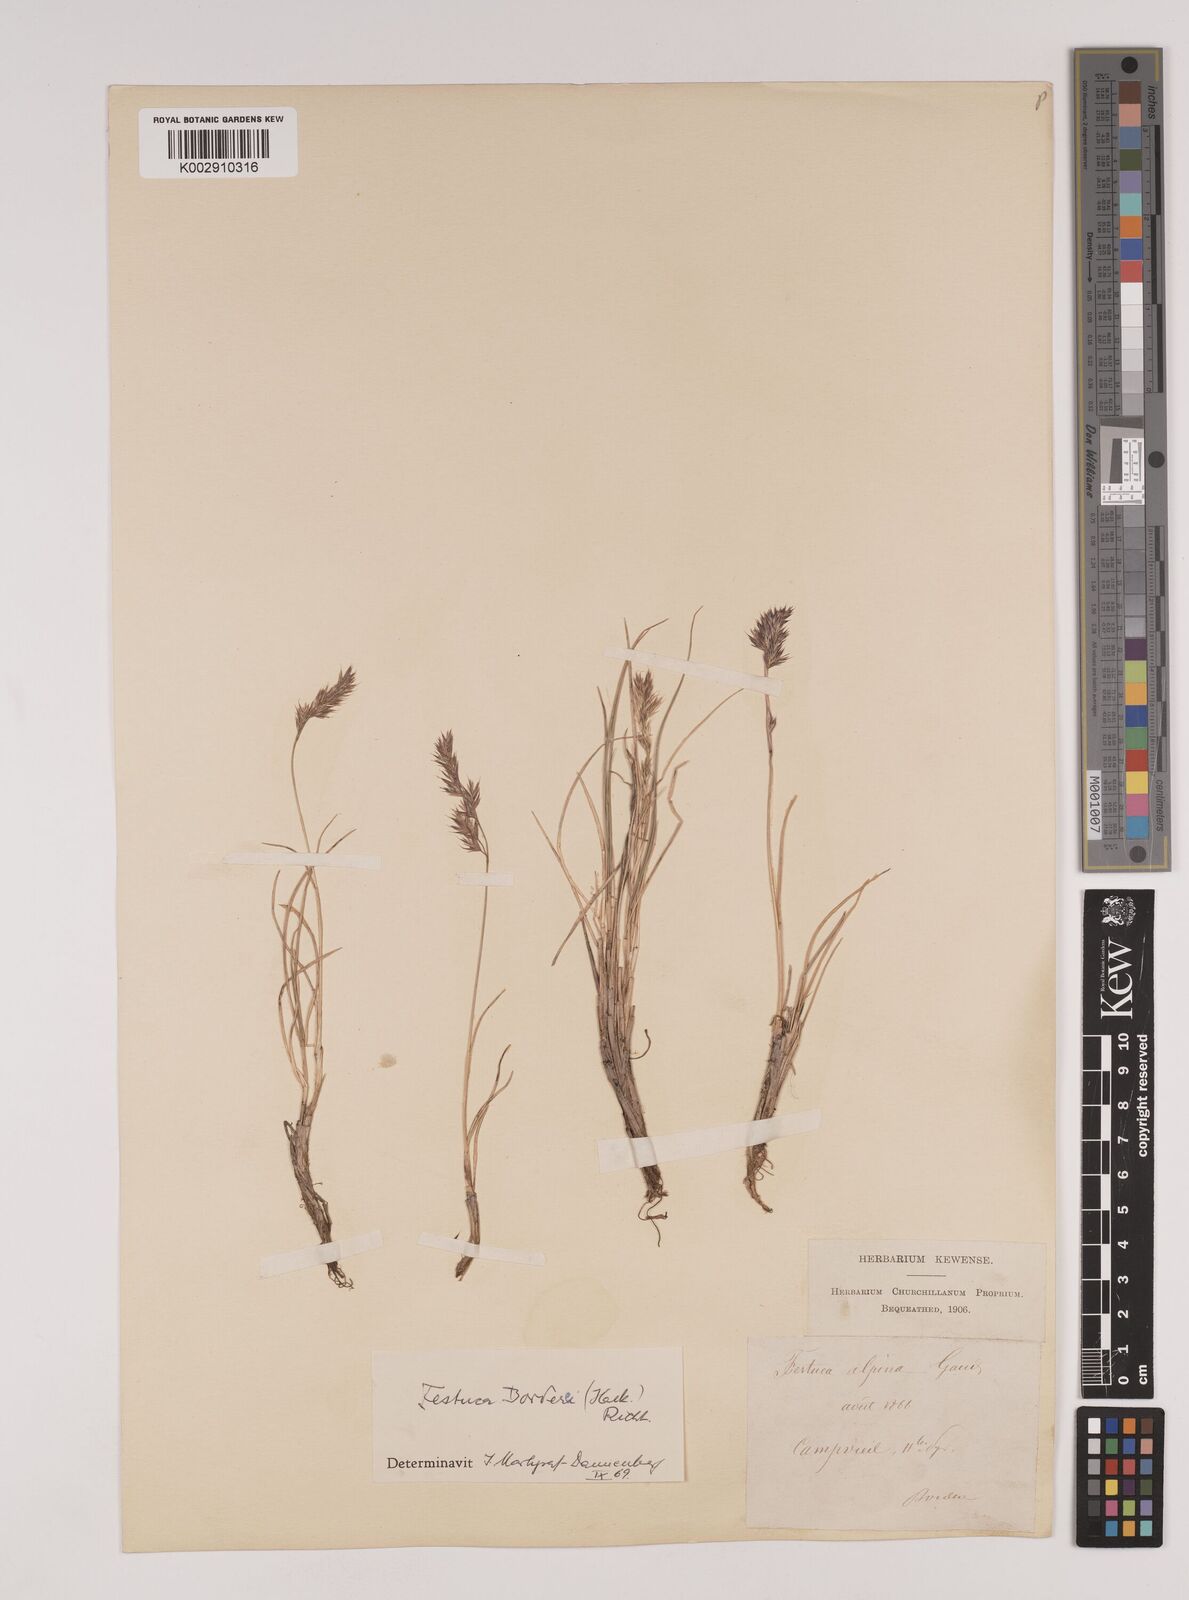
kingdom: Plantae
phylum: Tracheophyta
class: Liliopsida
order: Poales
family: Poaceae
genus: Festuca
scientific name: Festuca borderei
